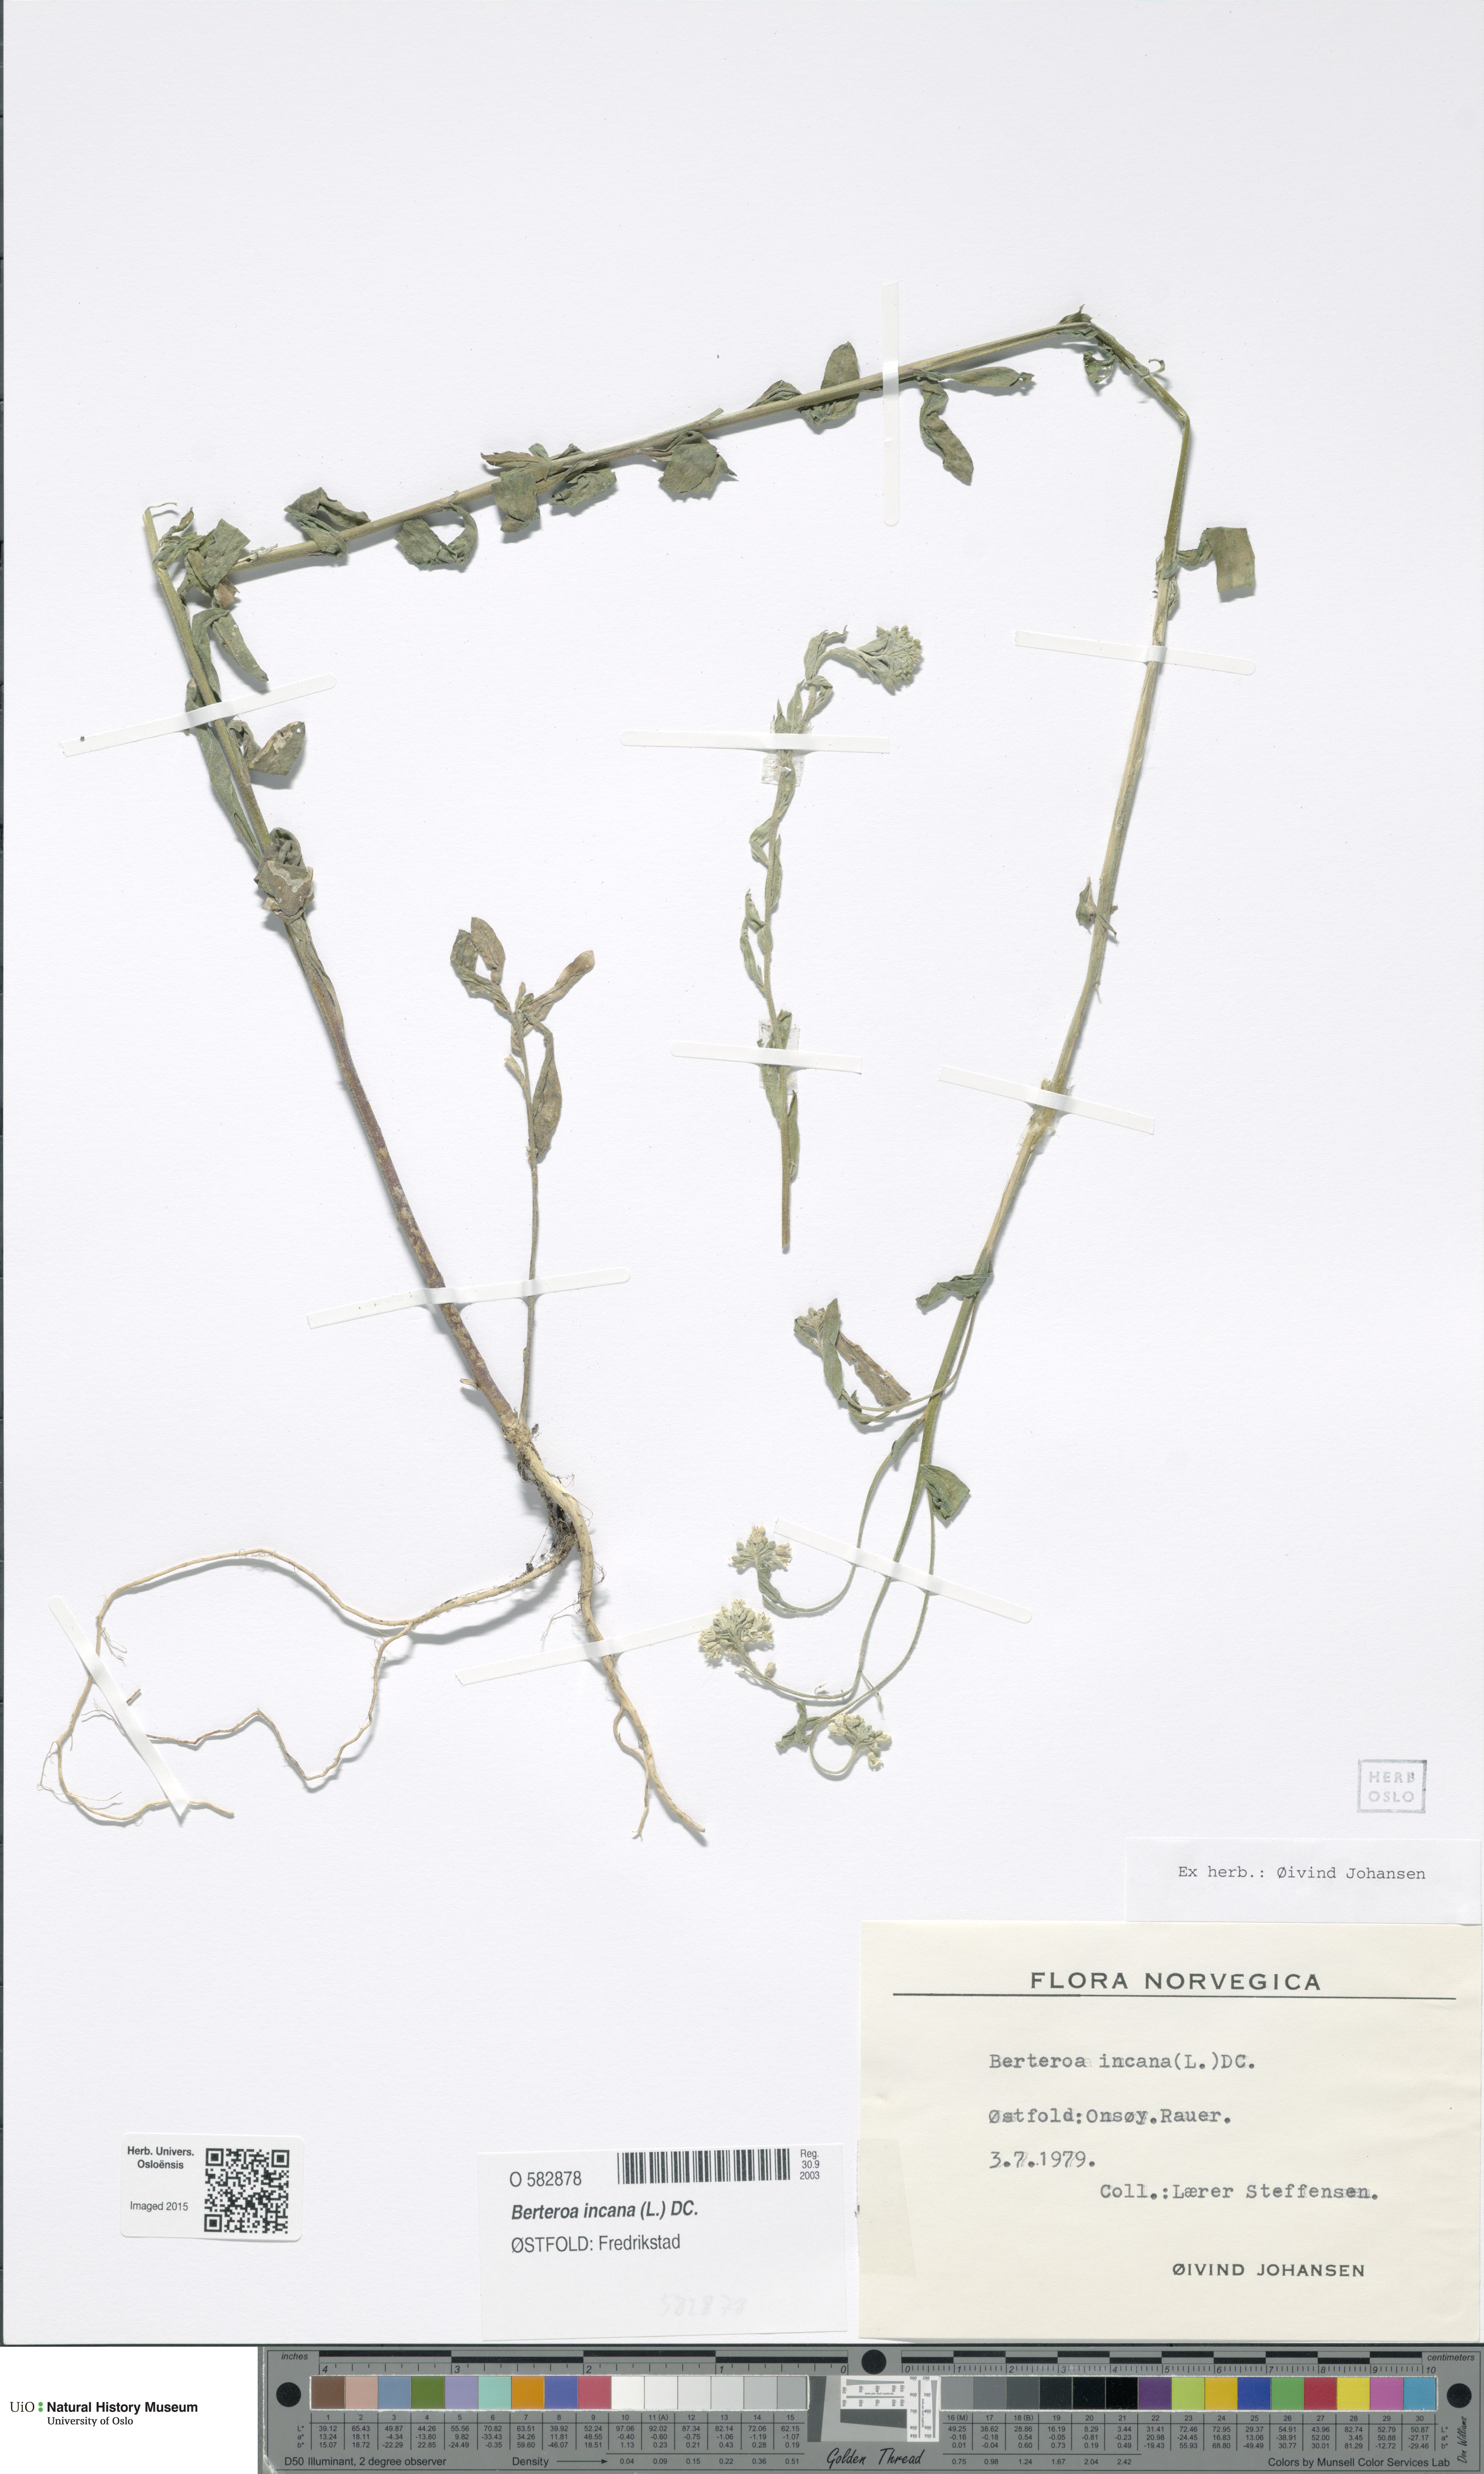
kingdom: Plantae
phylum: Tracheophyta
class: Magnoliopsida
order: Brassicales
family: Brassicaceae
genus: Berteroa
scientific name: Berteroa incana
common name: Hoary alison
